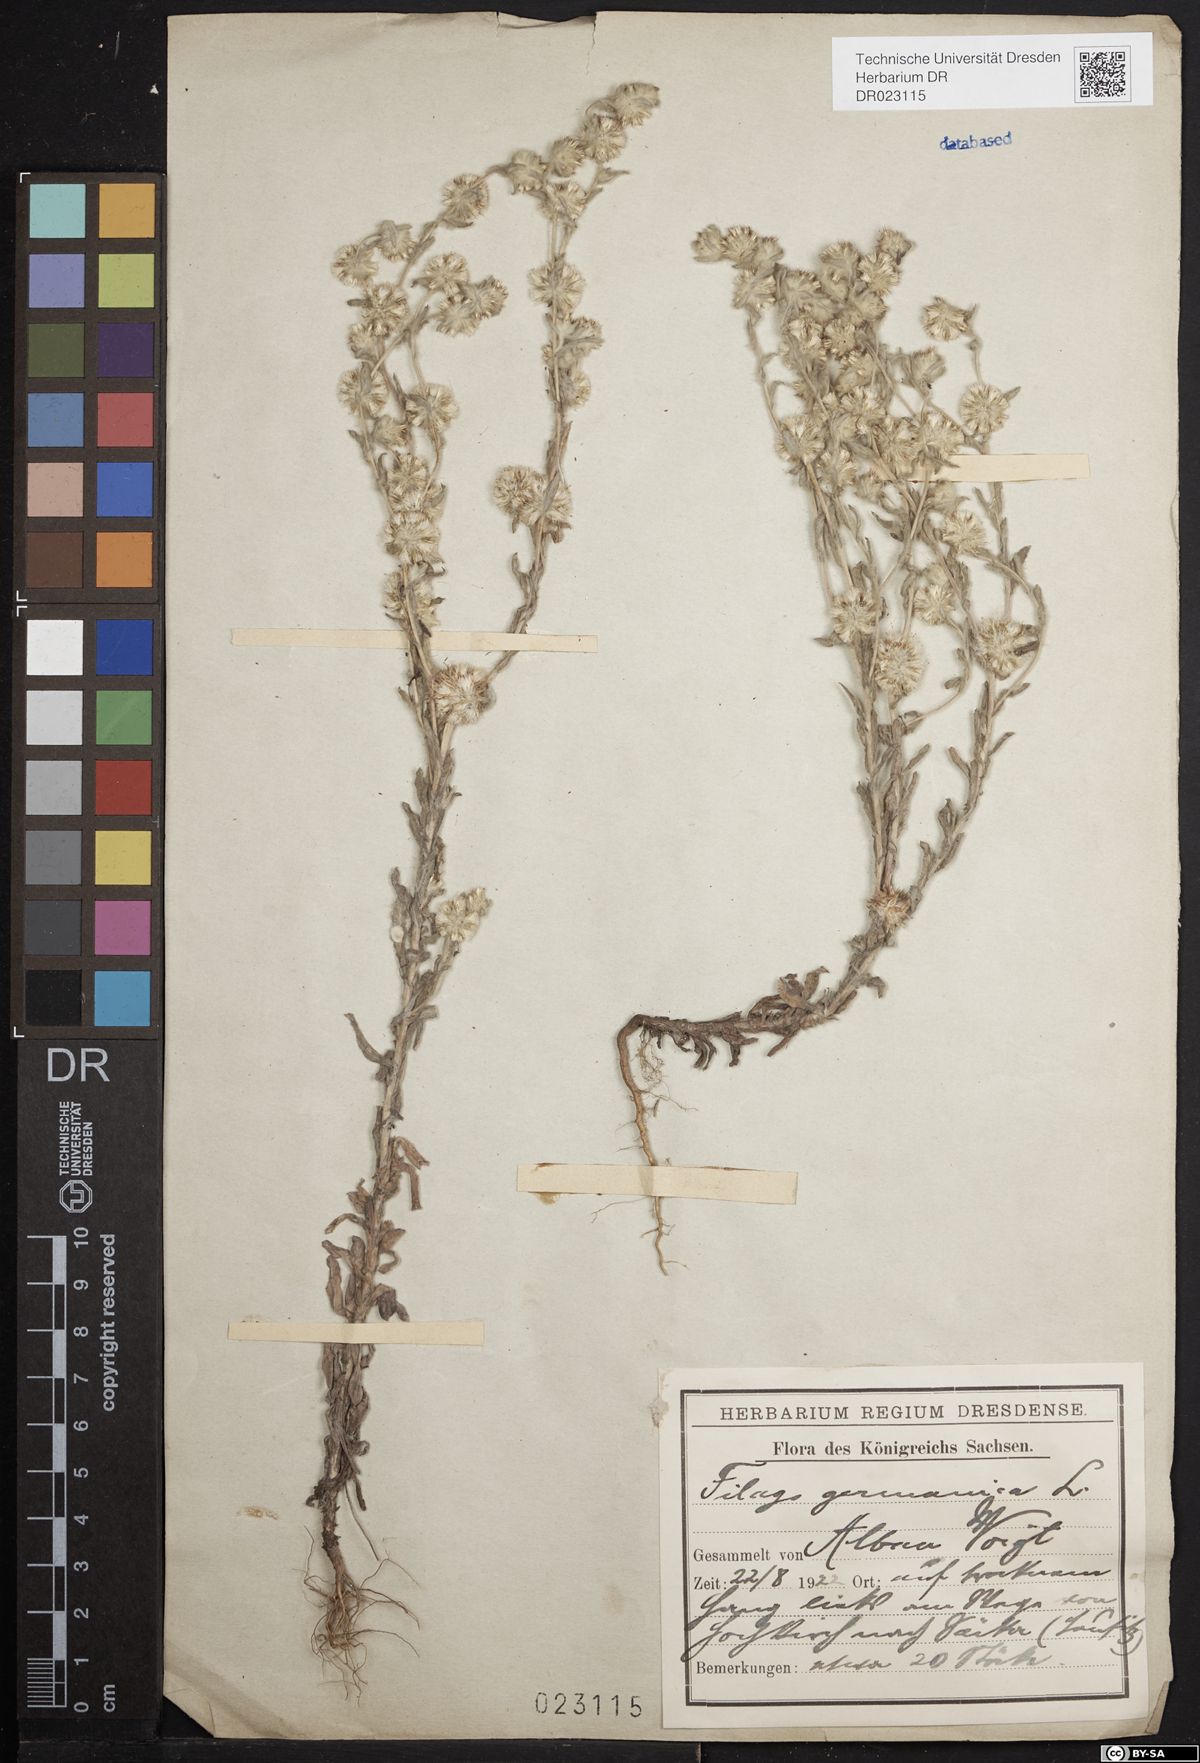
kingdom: Plantae
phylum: Tracheophyta
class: Magnoliopsida
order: Asterales
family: Asteraceae
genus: Filago
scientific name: Filago germanica
